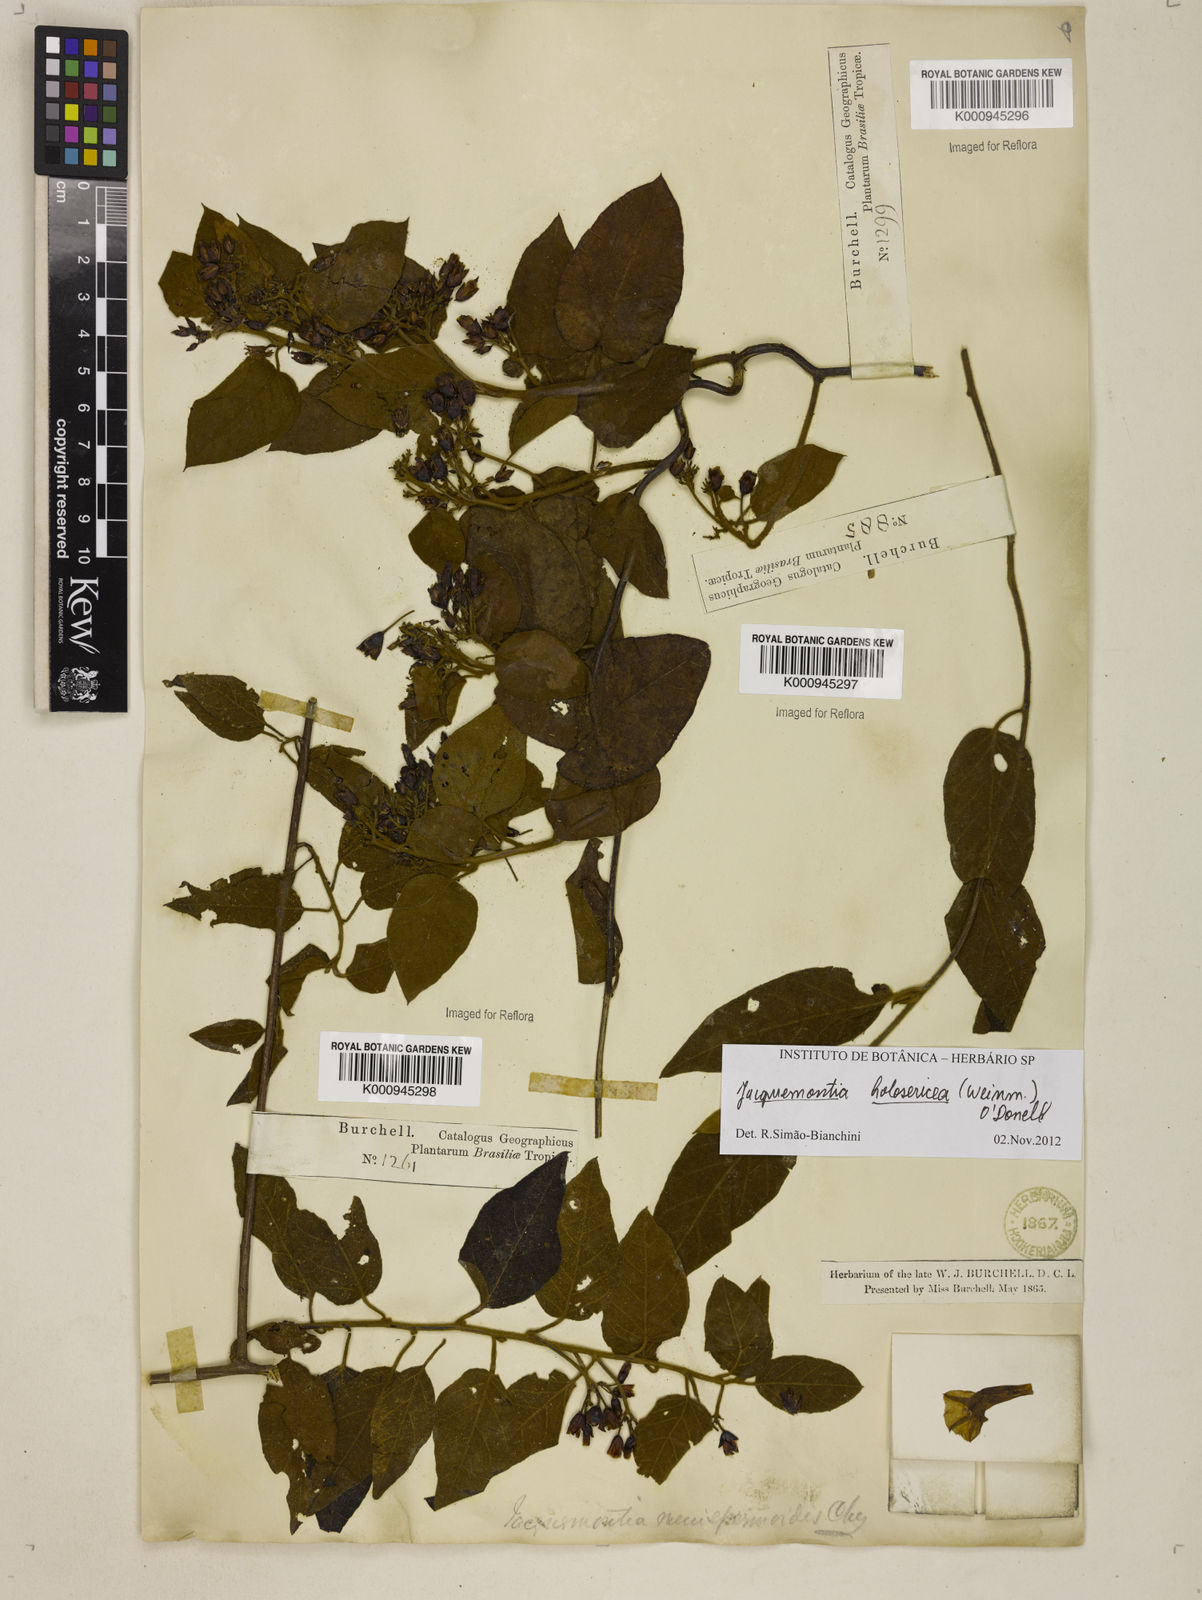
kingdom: Plantae
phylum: Tracheophyta
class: Magnoliopsida
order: Solanales
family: Convolvulaceae
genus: Jacquemontia
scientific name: Jacquemontia holosericea
